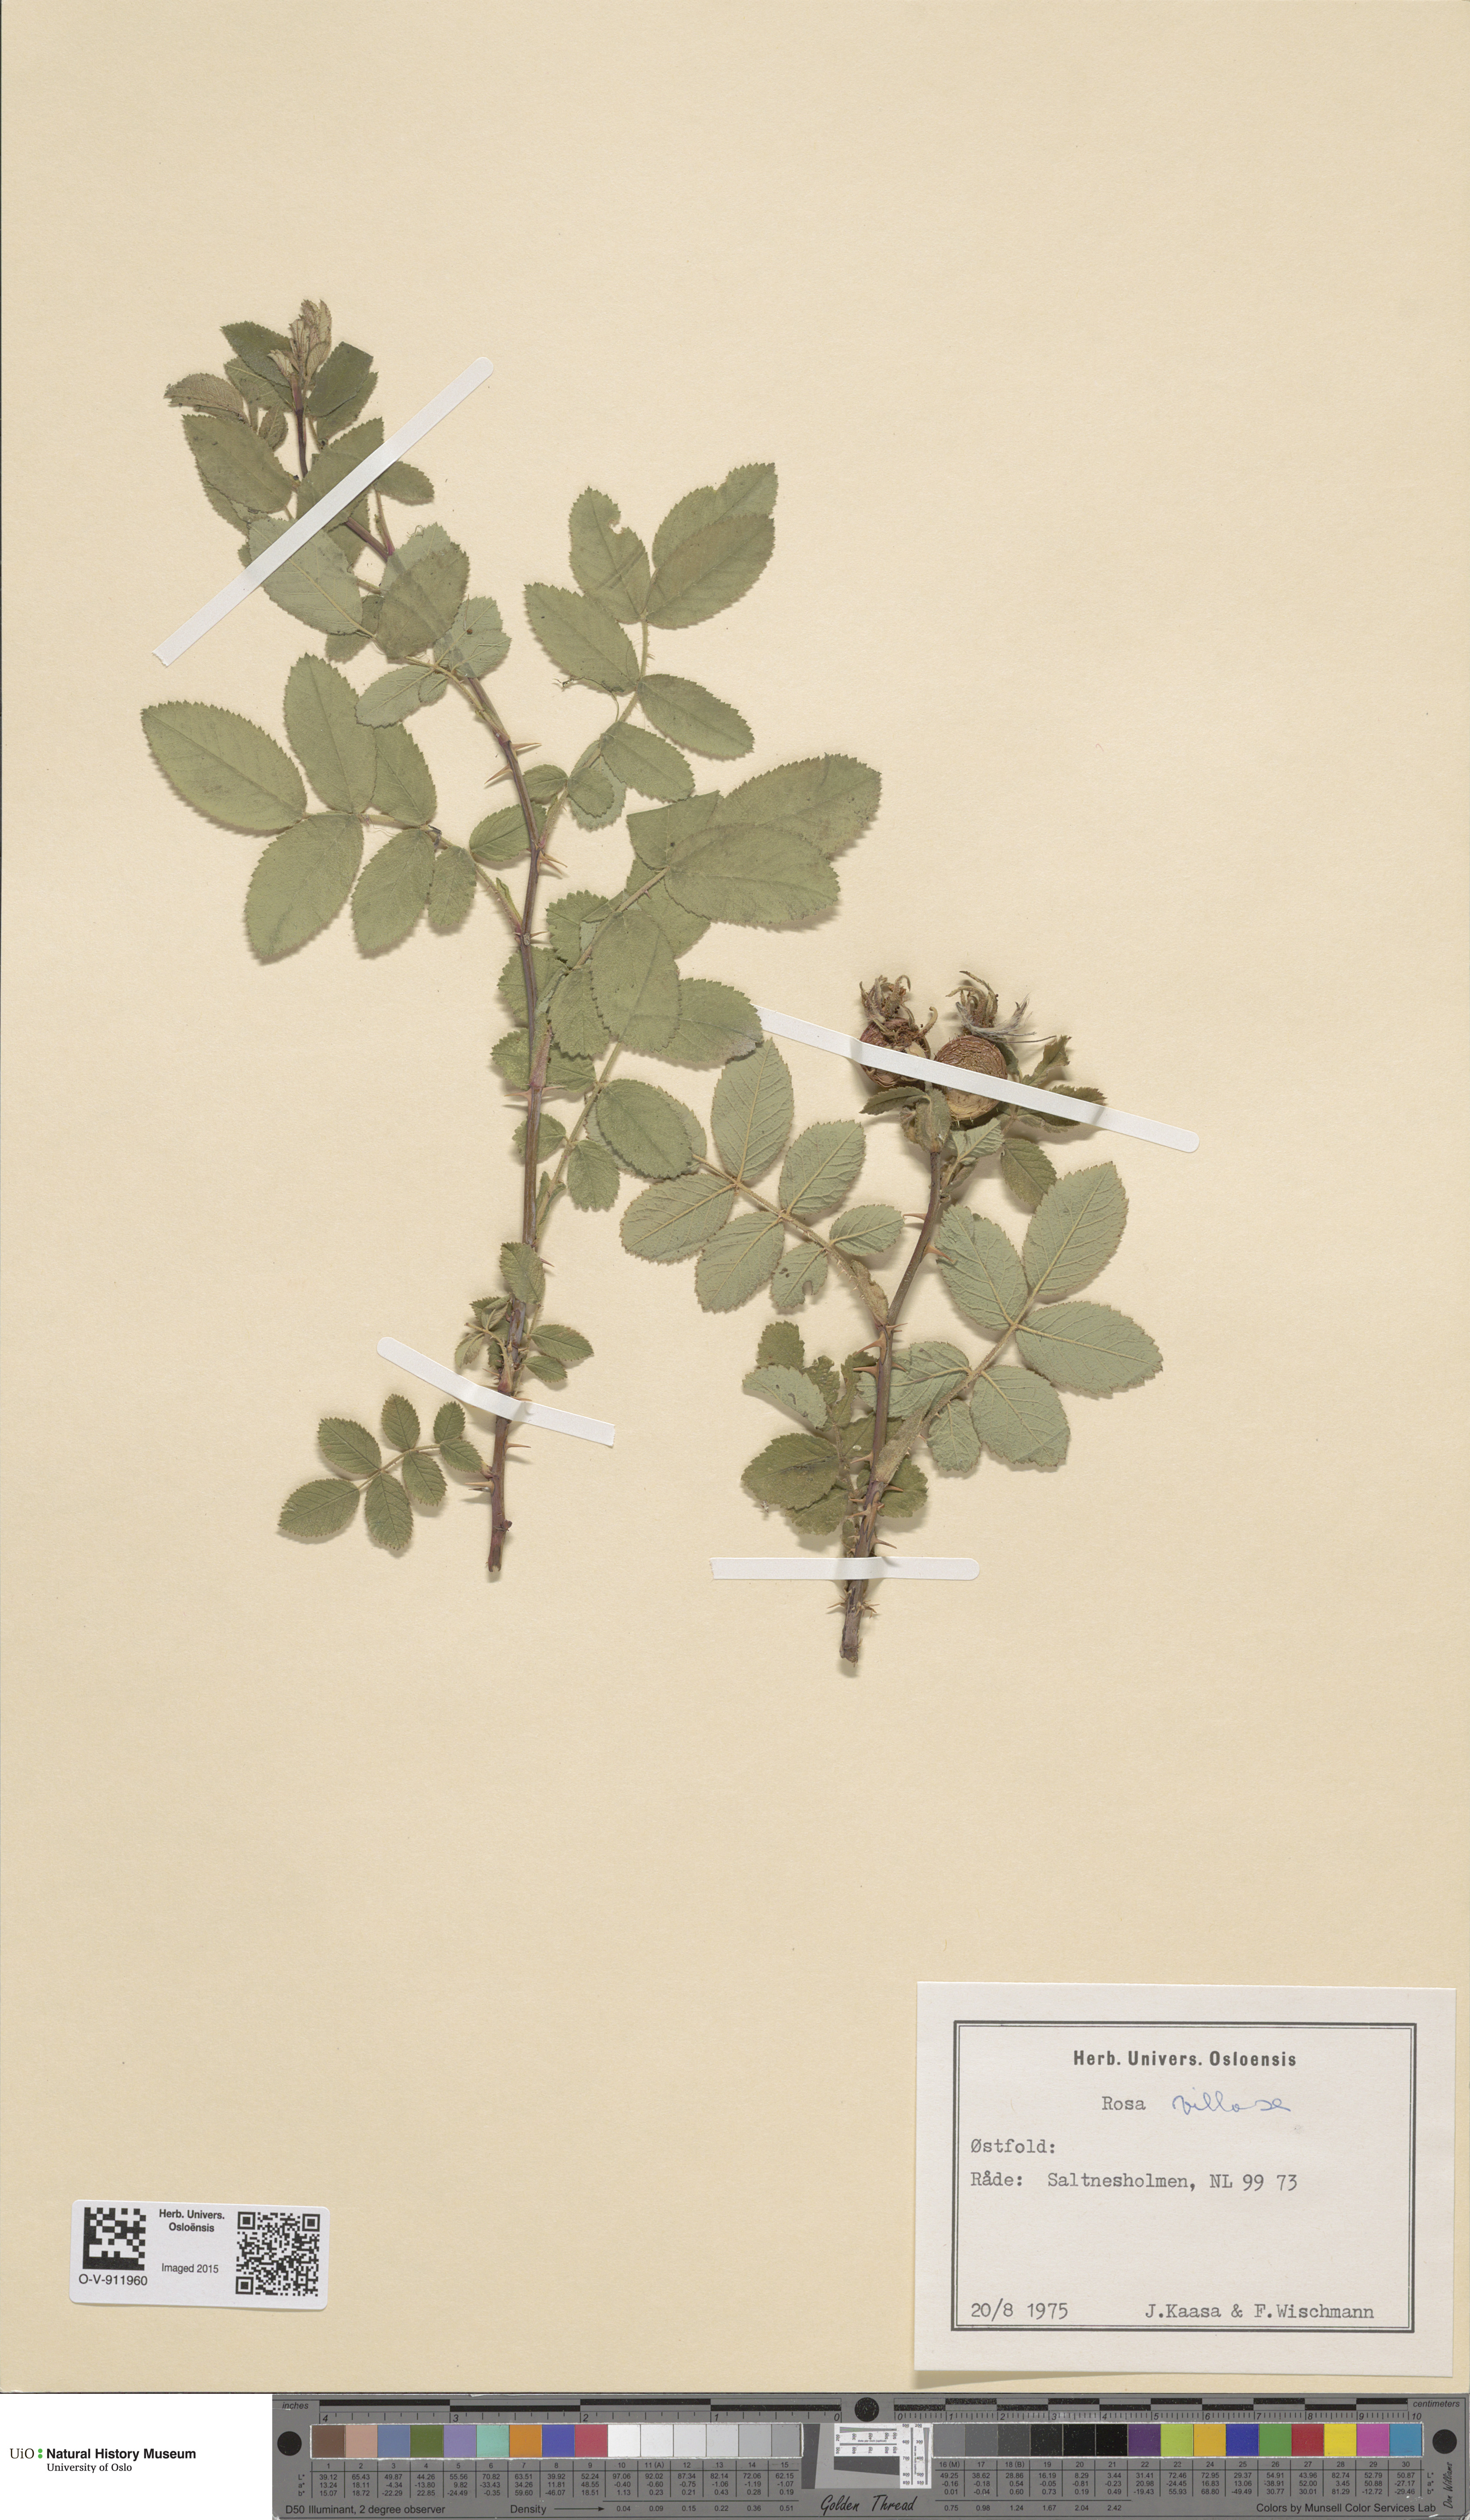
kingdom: Plantae
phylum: Tracheophyta
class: Magnoliopsida
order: Rosales
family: Rosaceae
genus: Rosa
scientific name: Rosa villosa
